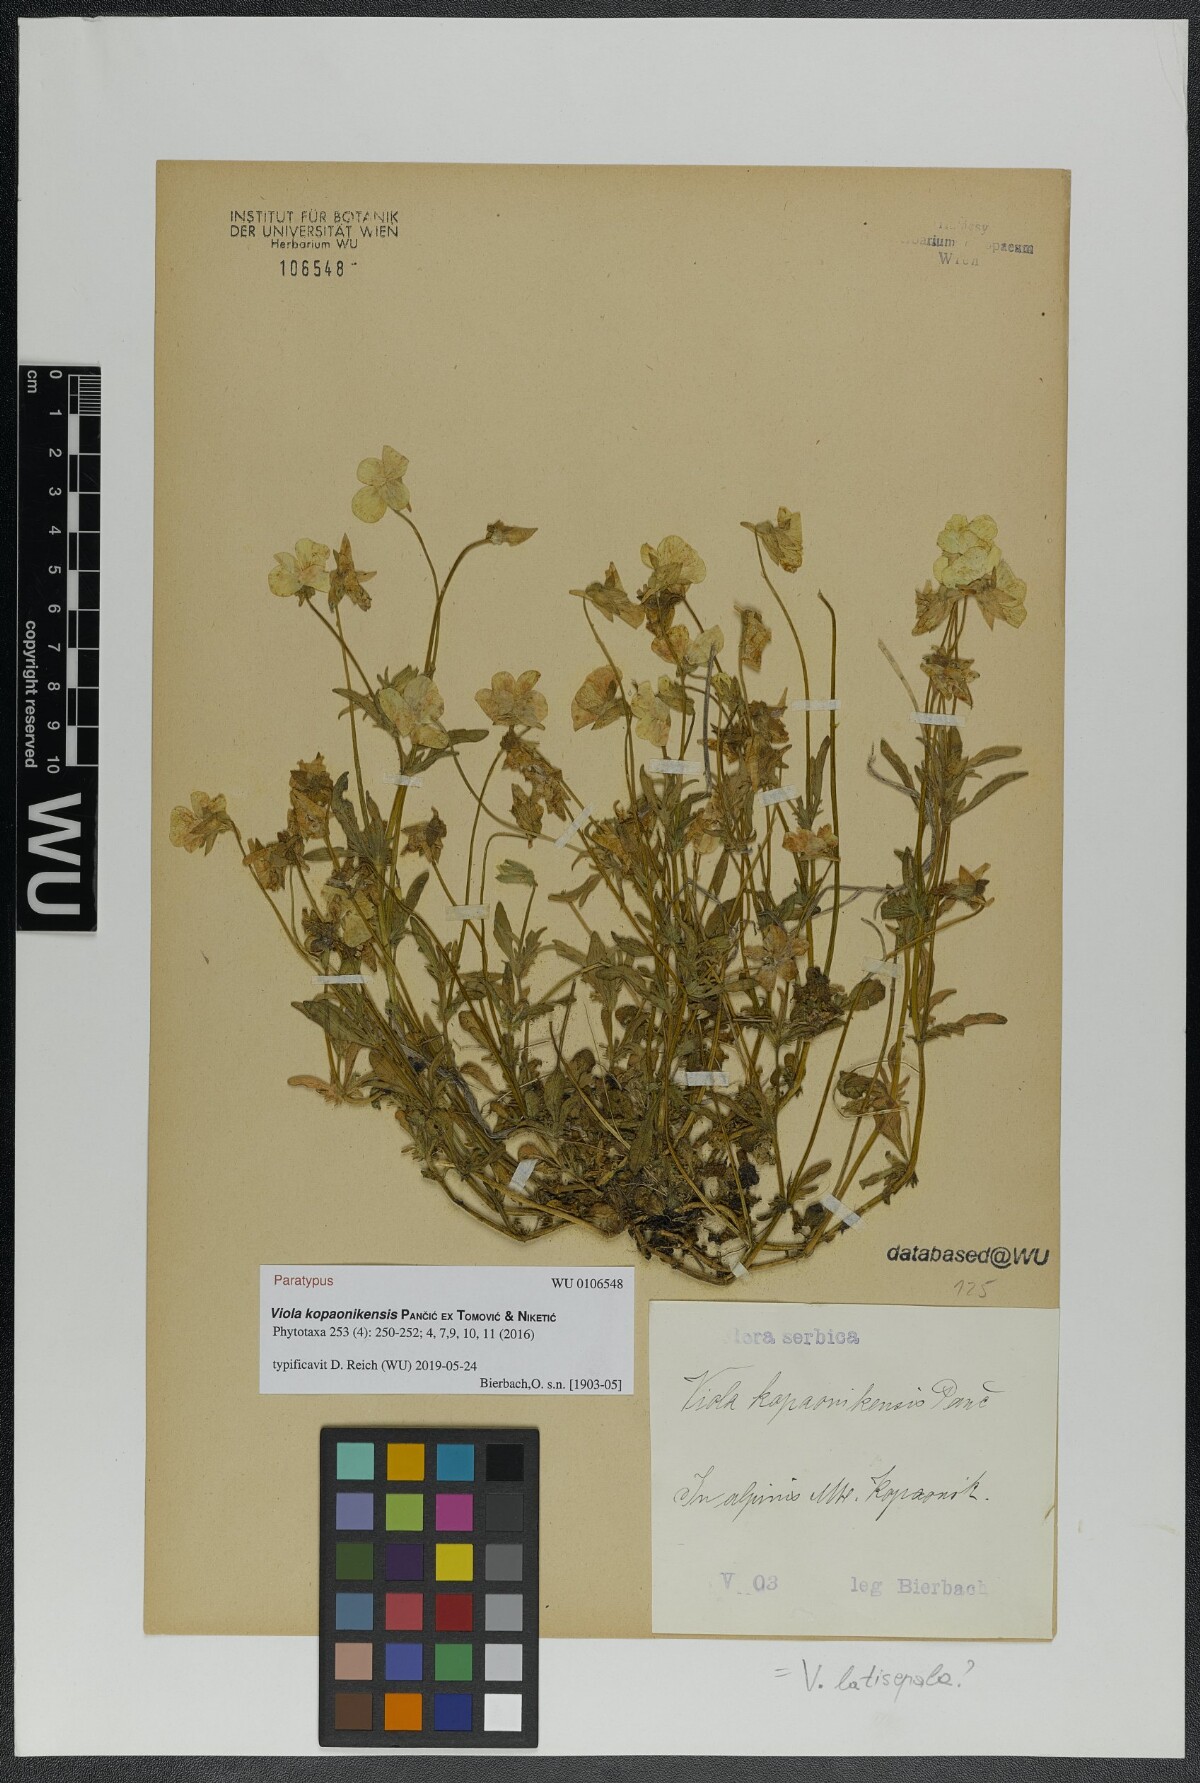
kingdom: Plantae
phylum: Tracheophyta
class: Magnoliopsida
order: Malpighiales
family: Violaceae
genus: Viola
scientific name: Viola kopaonikensis
